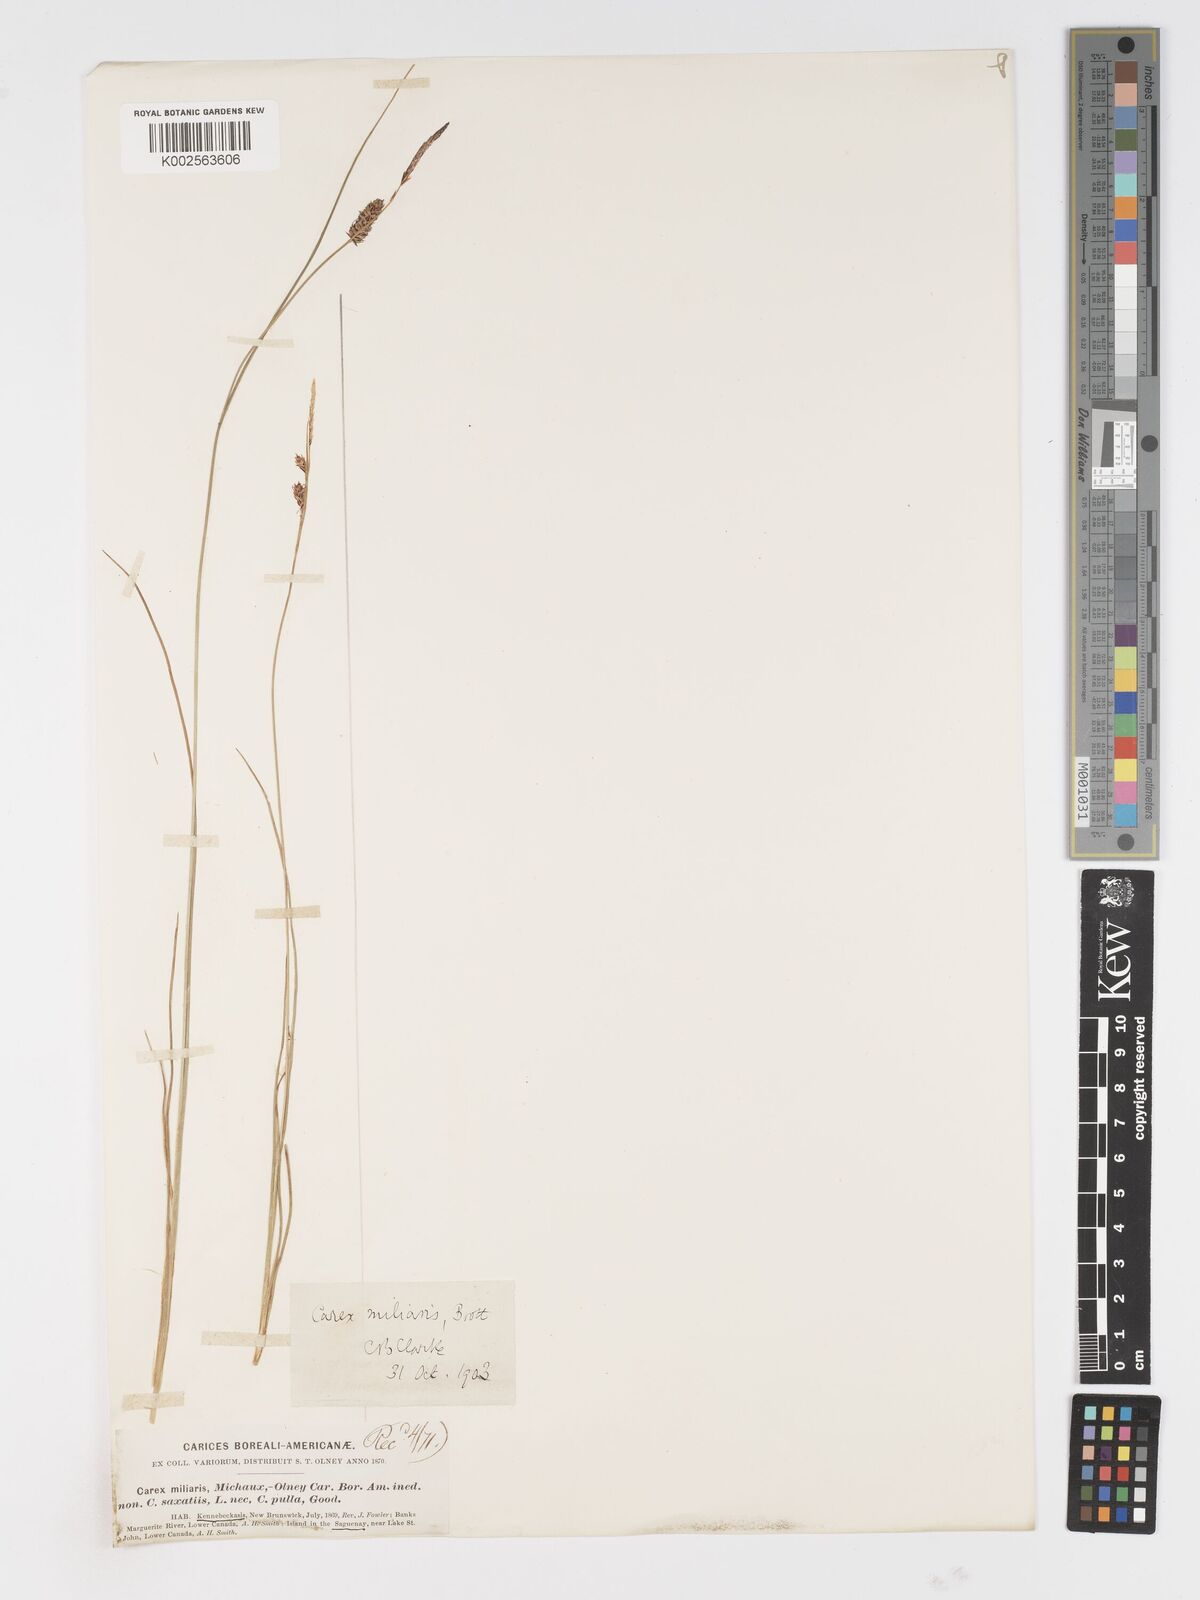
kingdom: Plantae
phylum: Tracheophyta
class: Liliopsida
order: Poales
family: Cyperaceae
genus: Carex
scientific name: Carex miliaris
